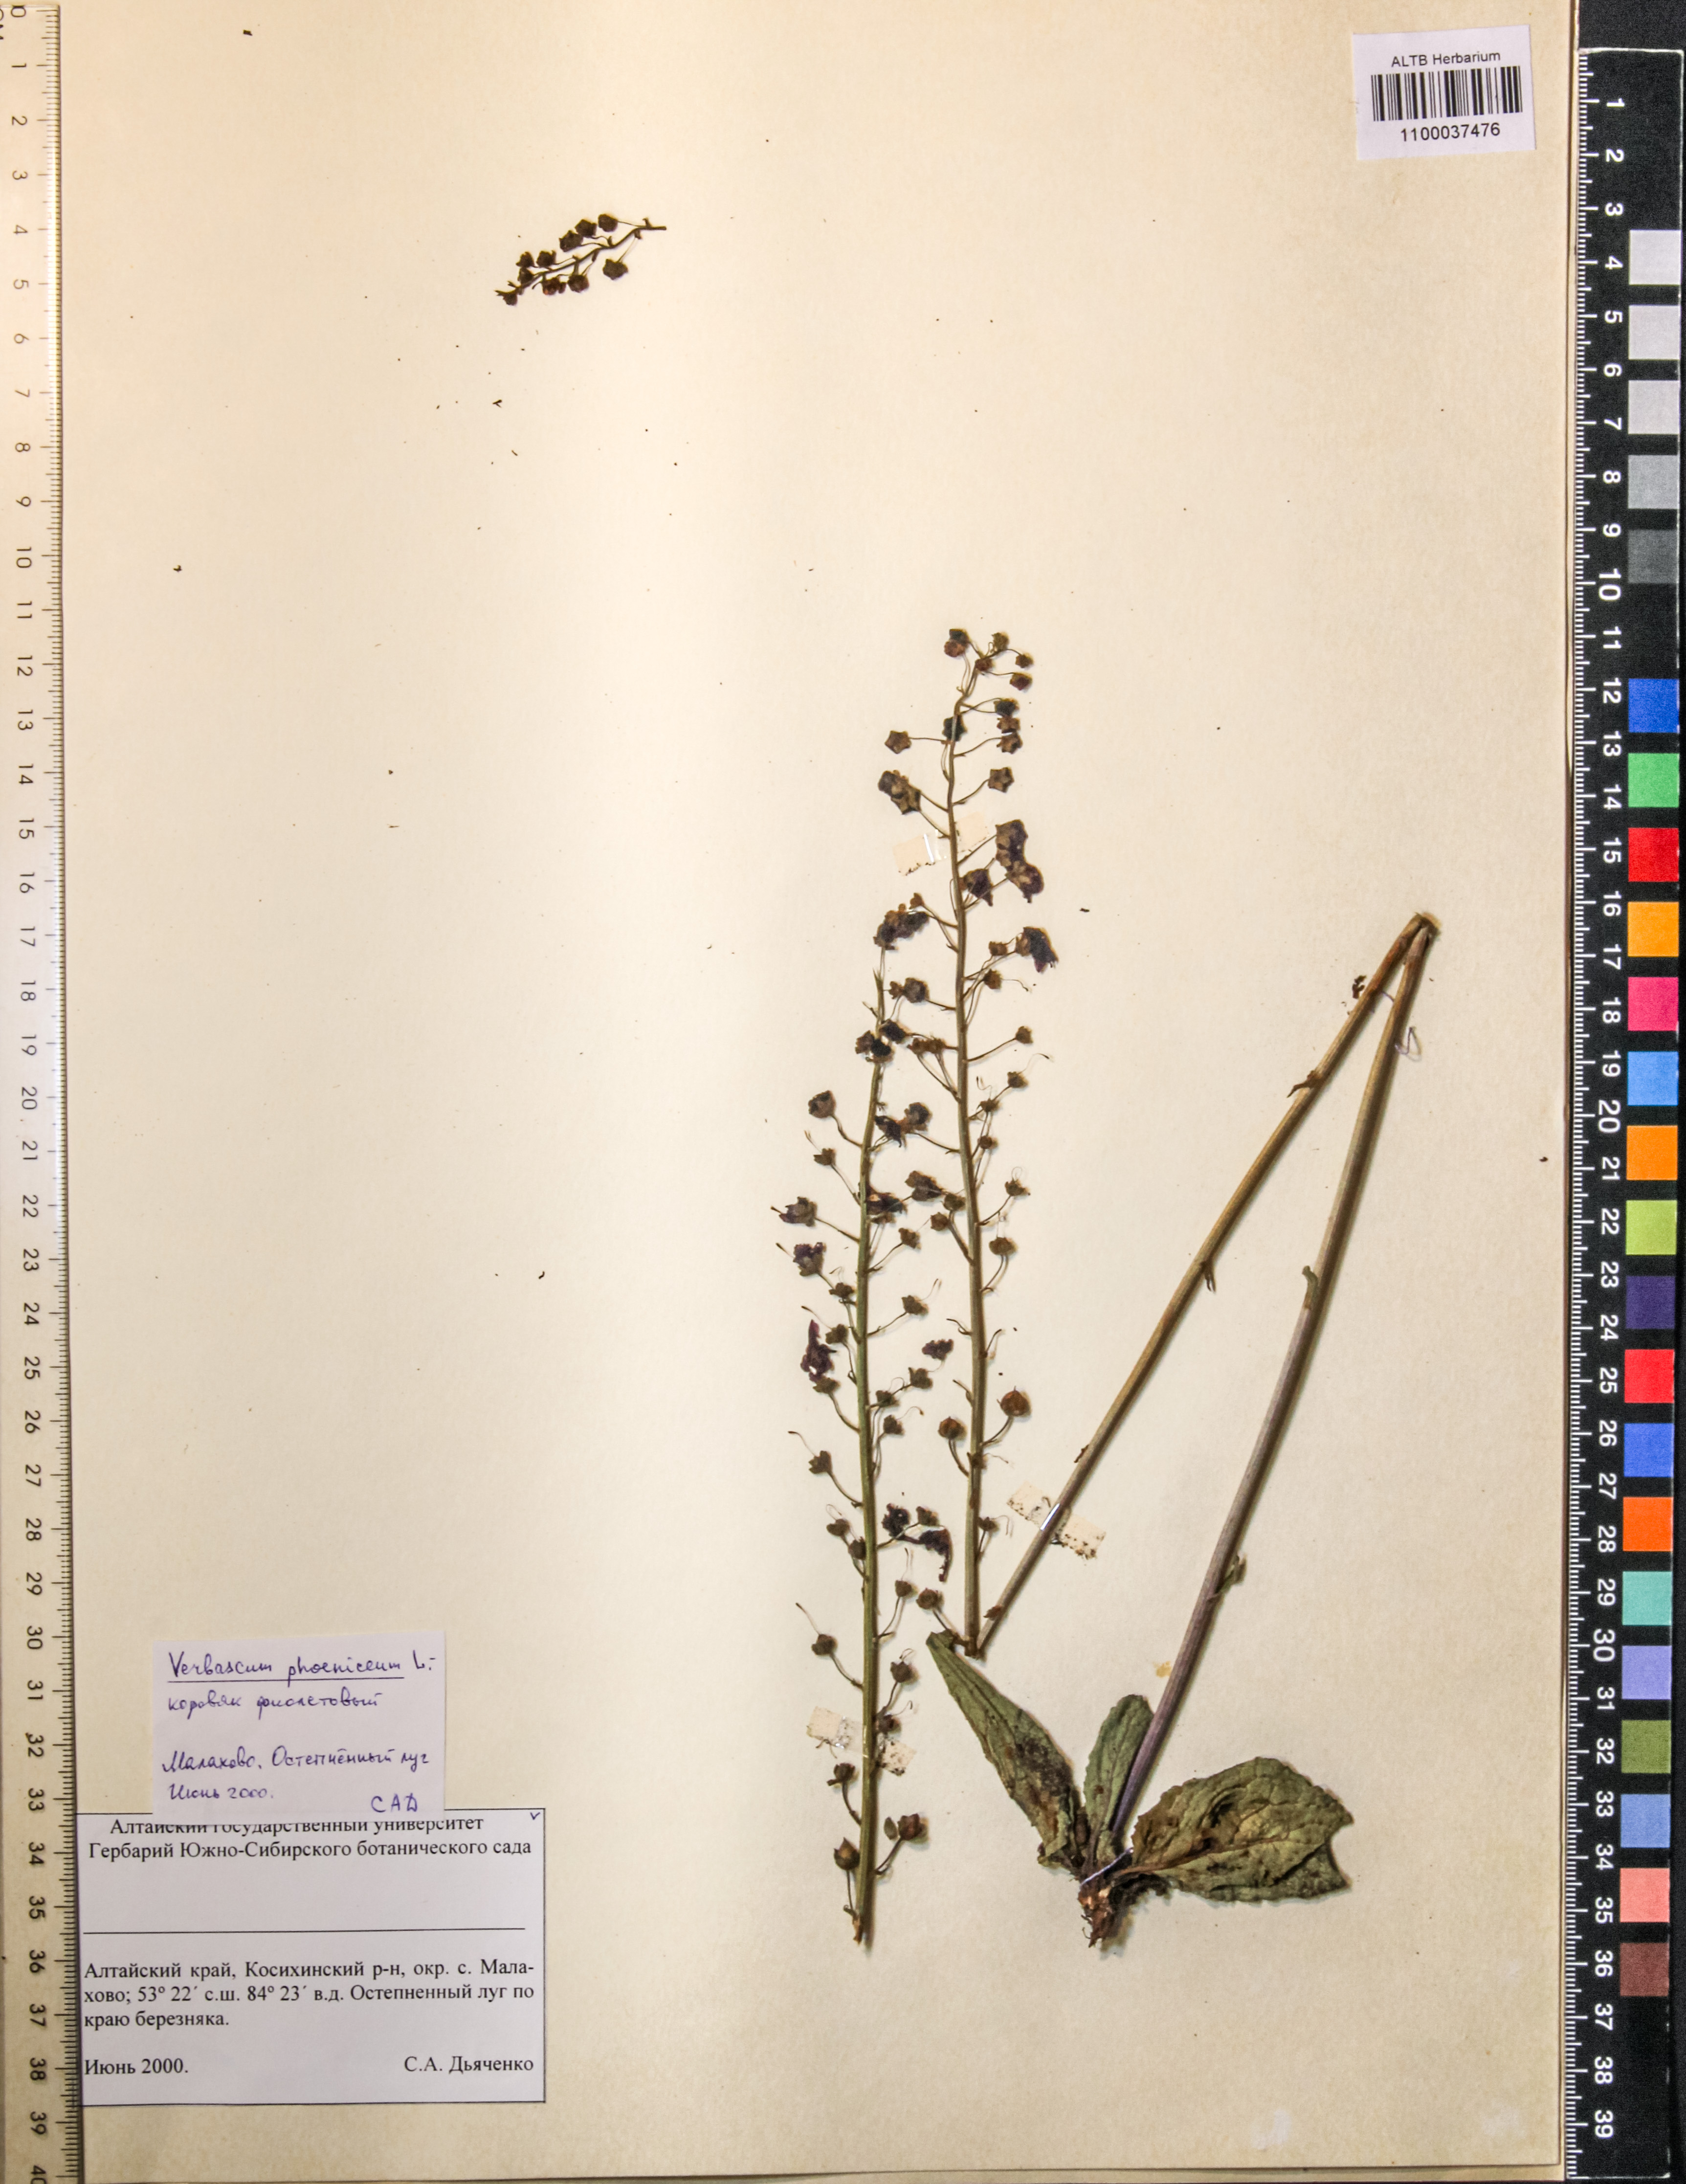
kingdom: Plantae
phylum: Tracheophyta
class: Magnoliopsida
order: Lamiales
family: Scrophulariaceae
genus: Verbascum
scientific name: Verbascum phoeniceum
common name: Purple mullein
